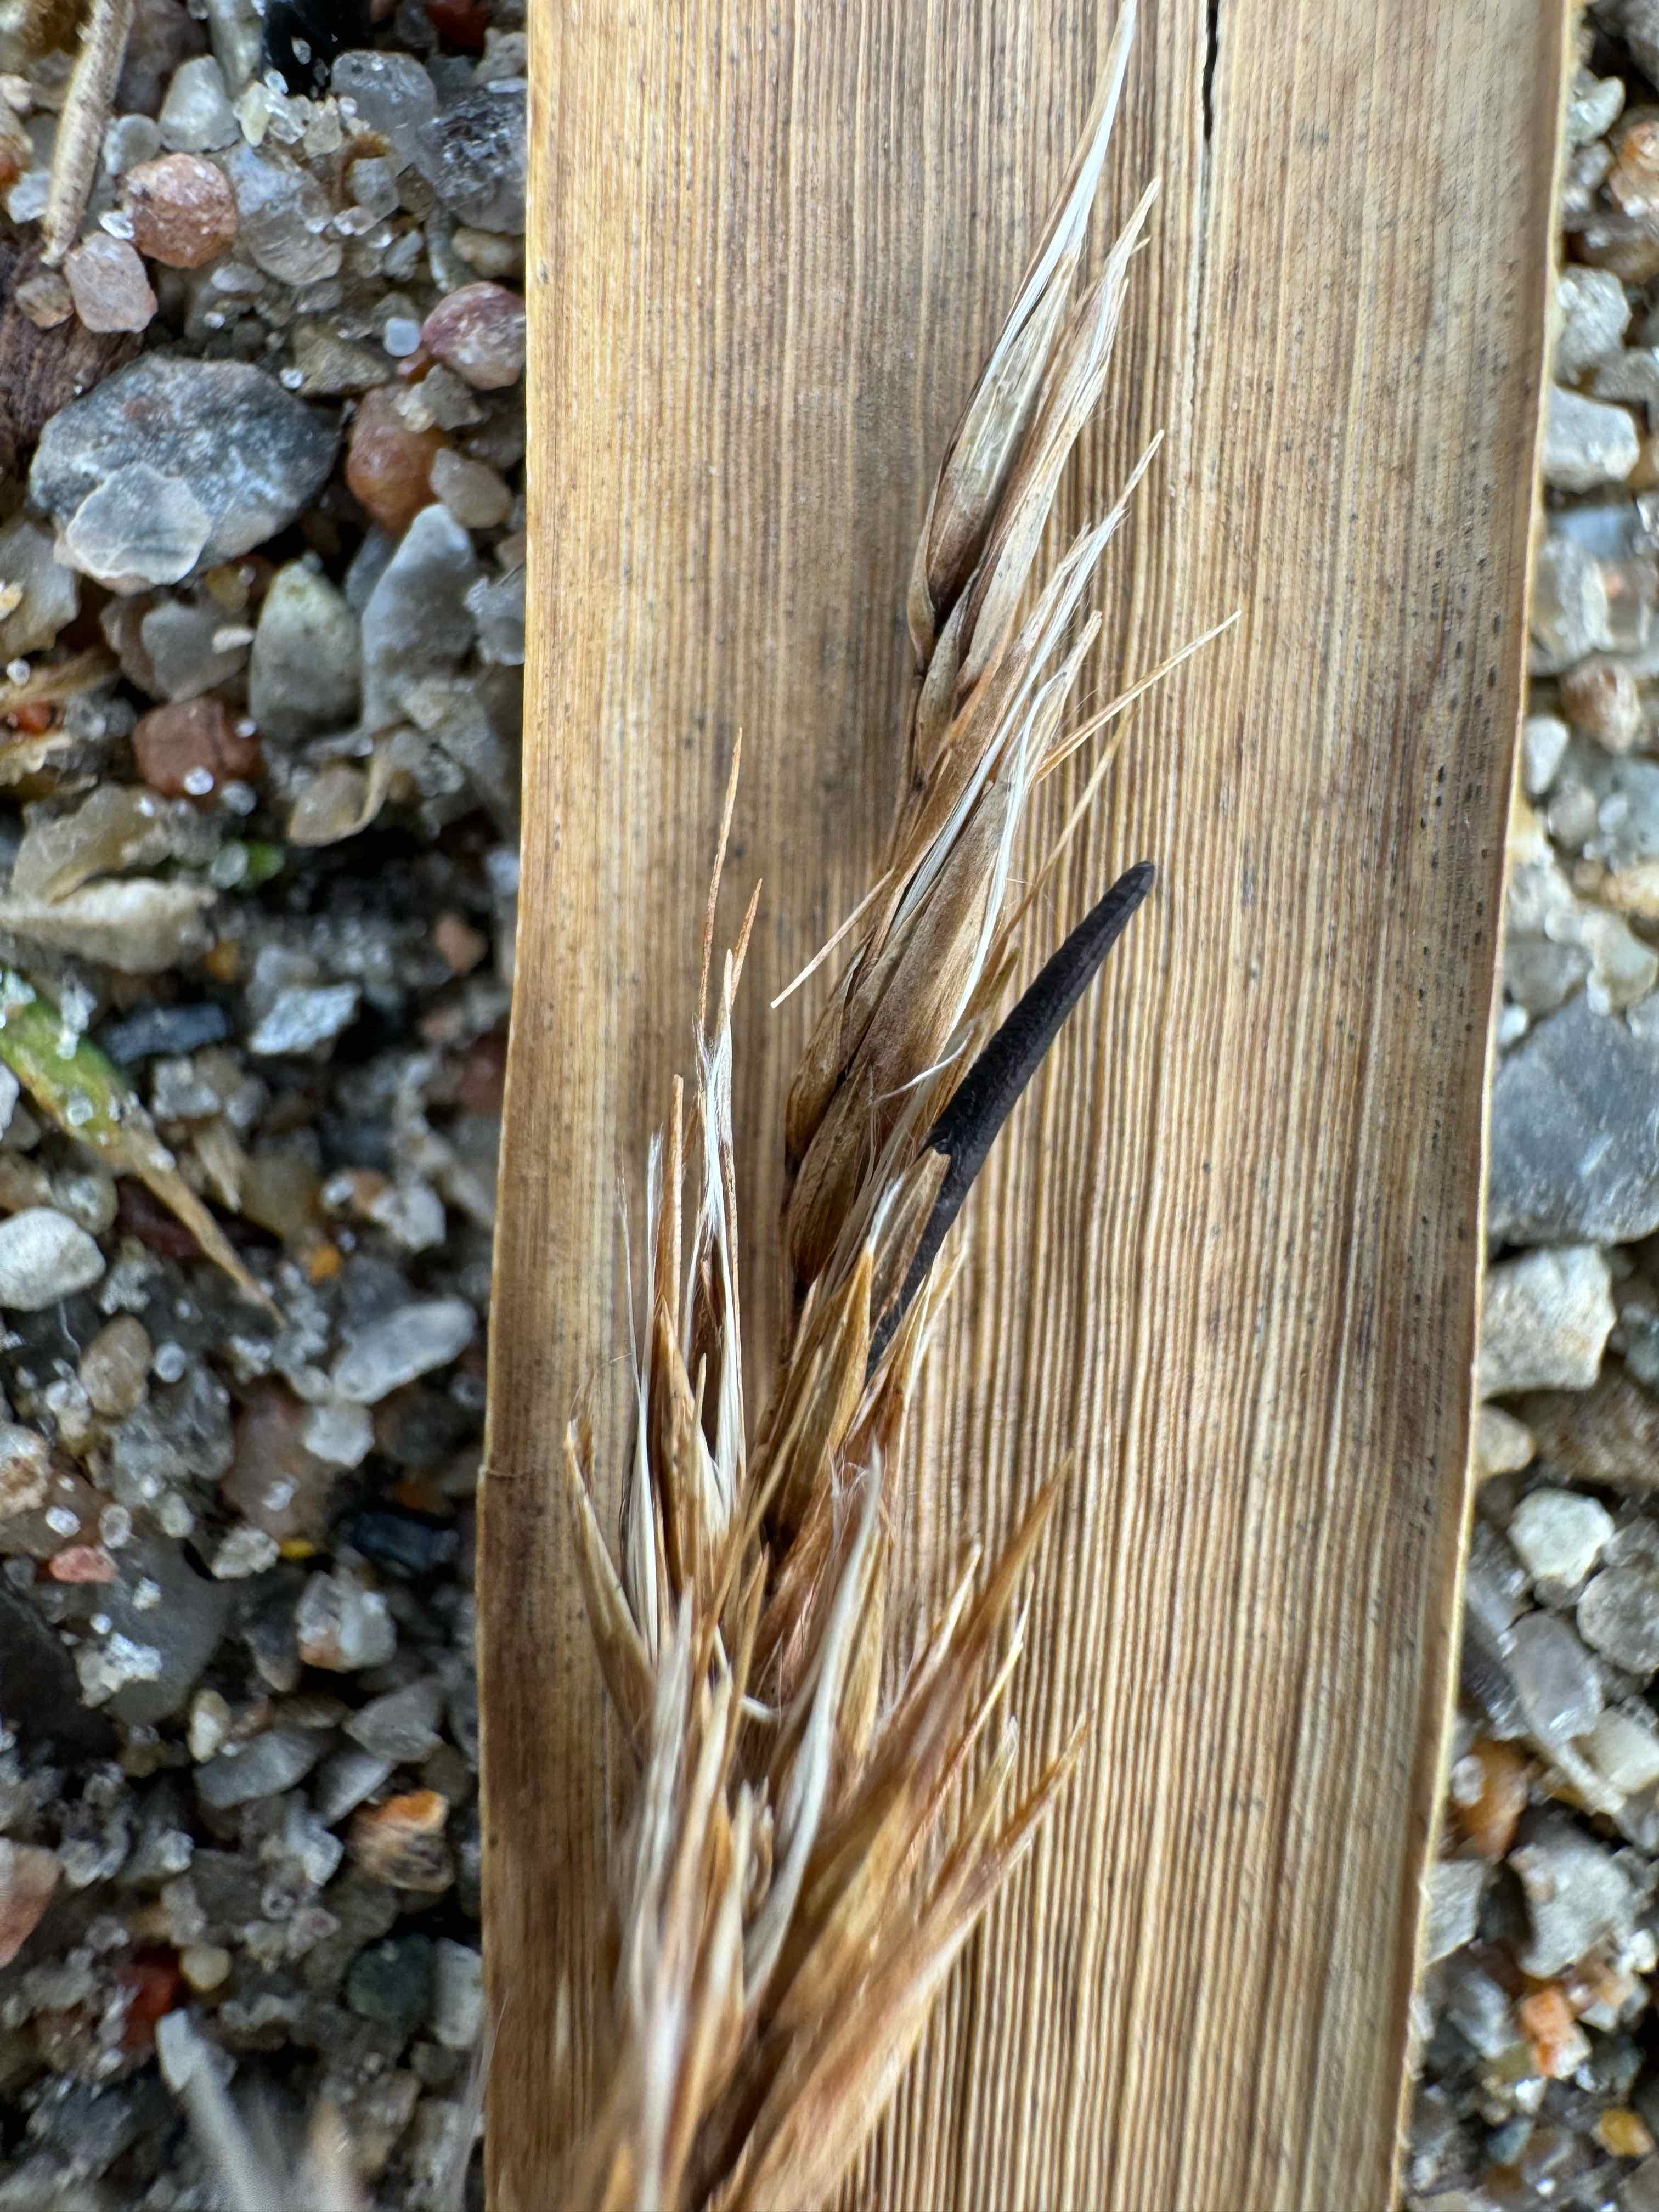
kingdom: Fungi
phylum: Ascomycota
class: Sordariomycetes
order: Hypocreales
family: Clavicipitaceae
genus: Claviceps
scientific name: Claviceps arundinis
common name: tagrør-meldrøjer
